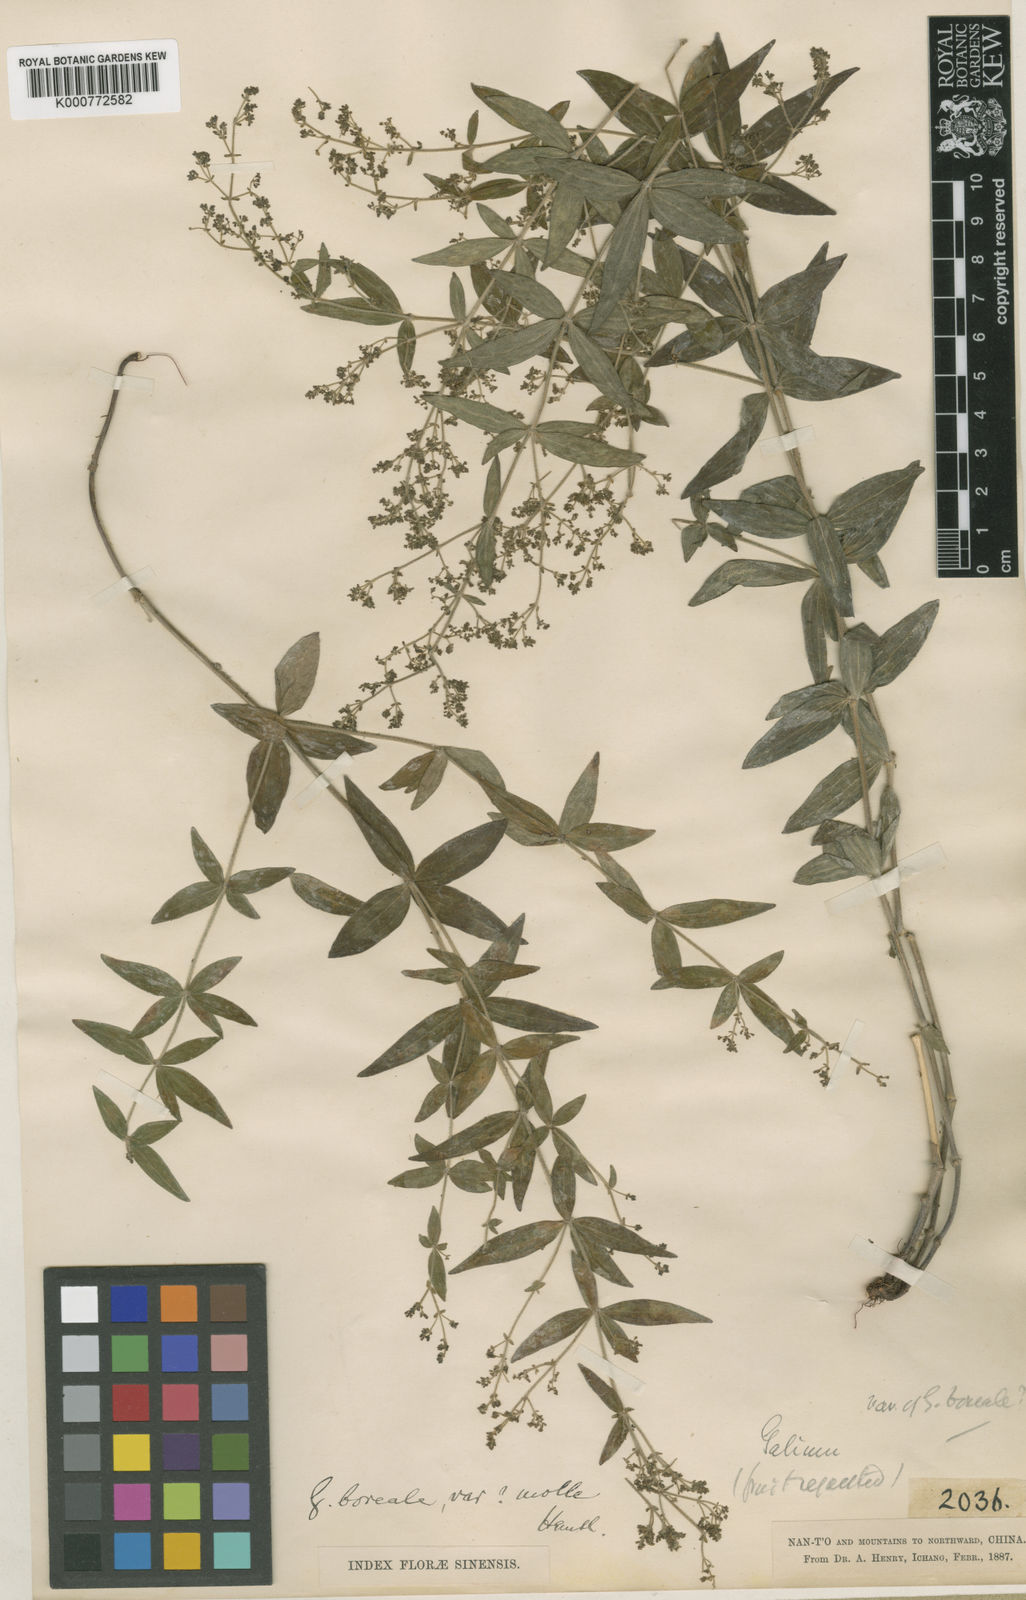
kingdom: Plantae
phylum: Tracheophyta
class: Magnoliopsida
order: Gentianales
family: Rubiaceae
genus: Galium
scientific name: Galium odoratum
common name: Sweet woodruff
